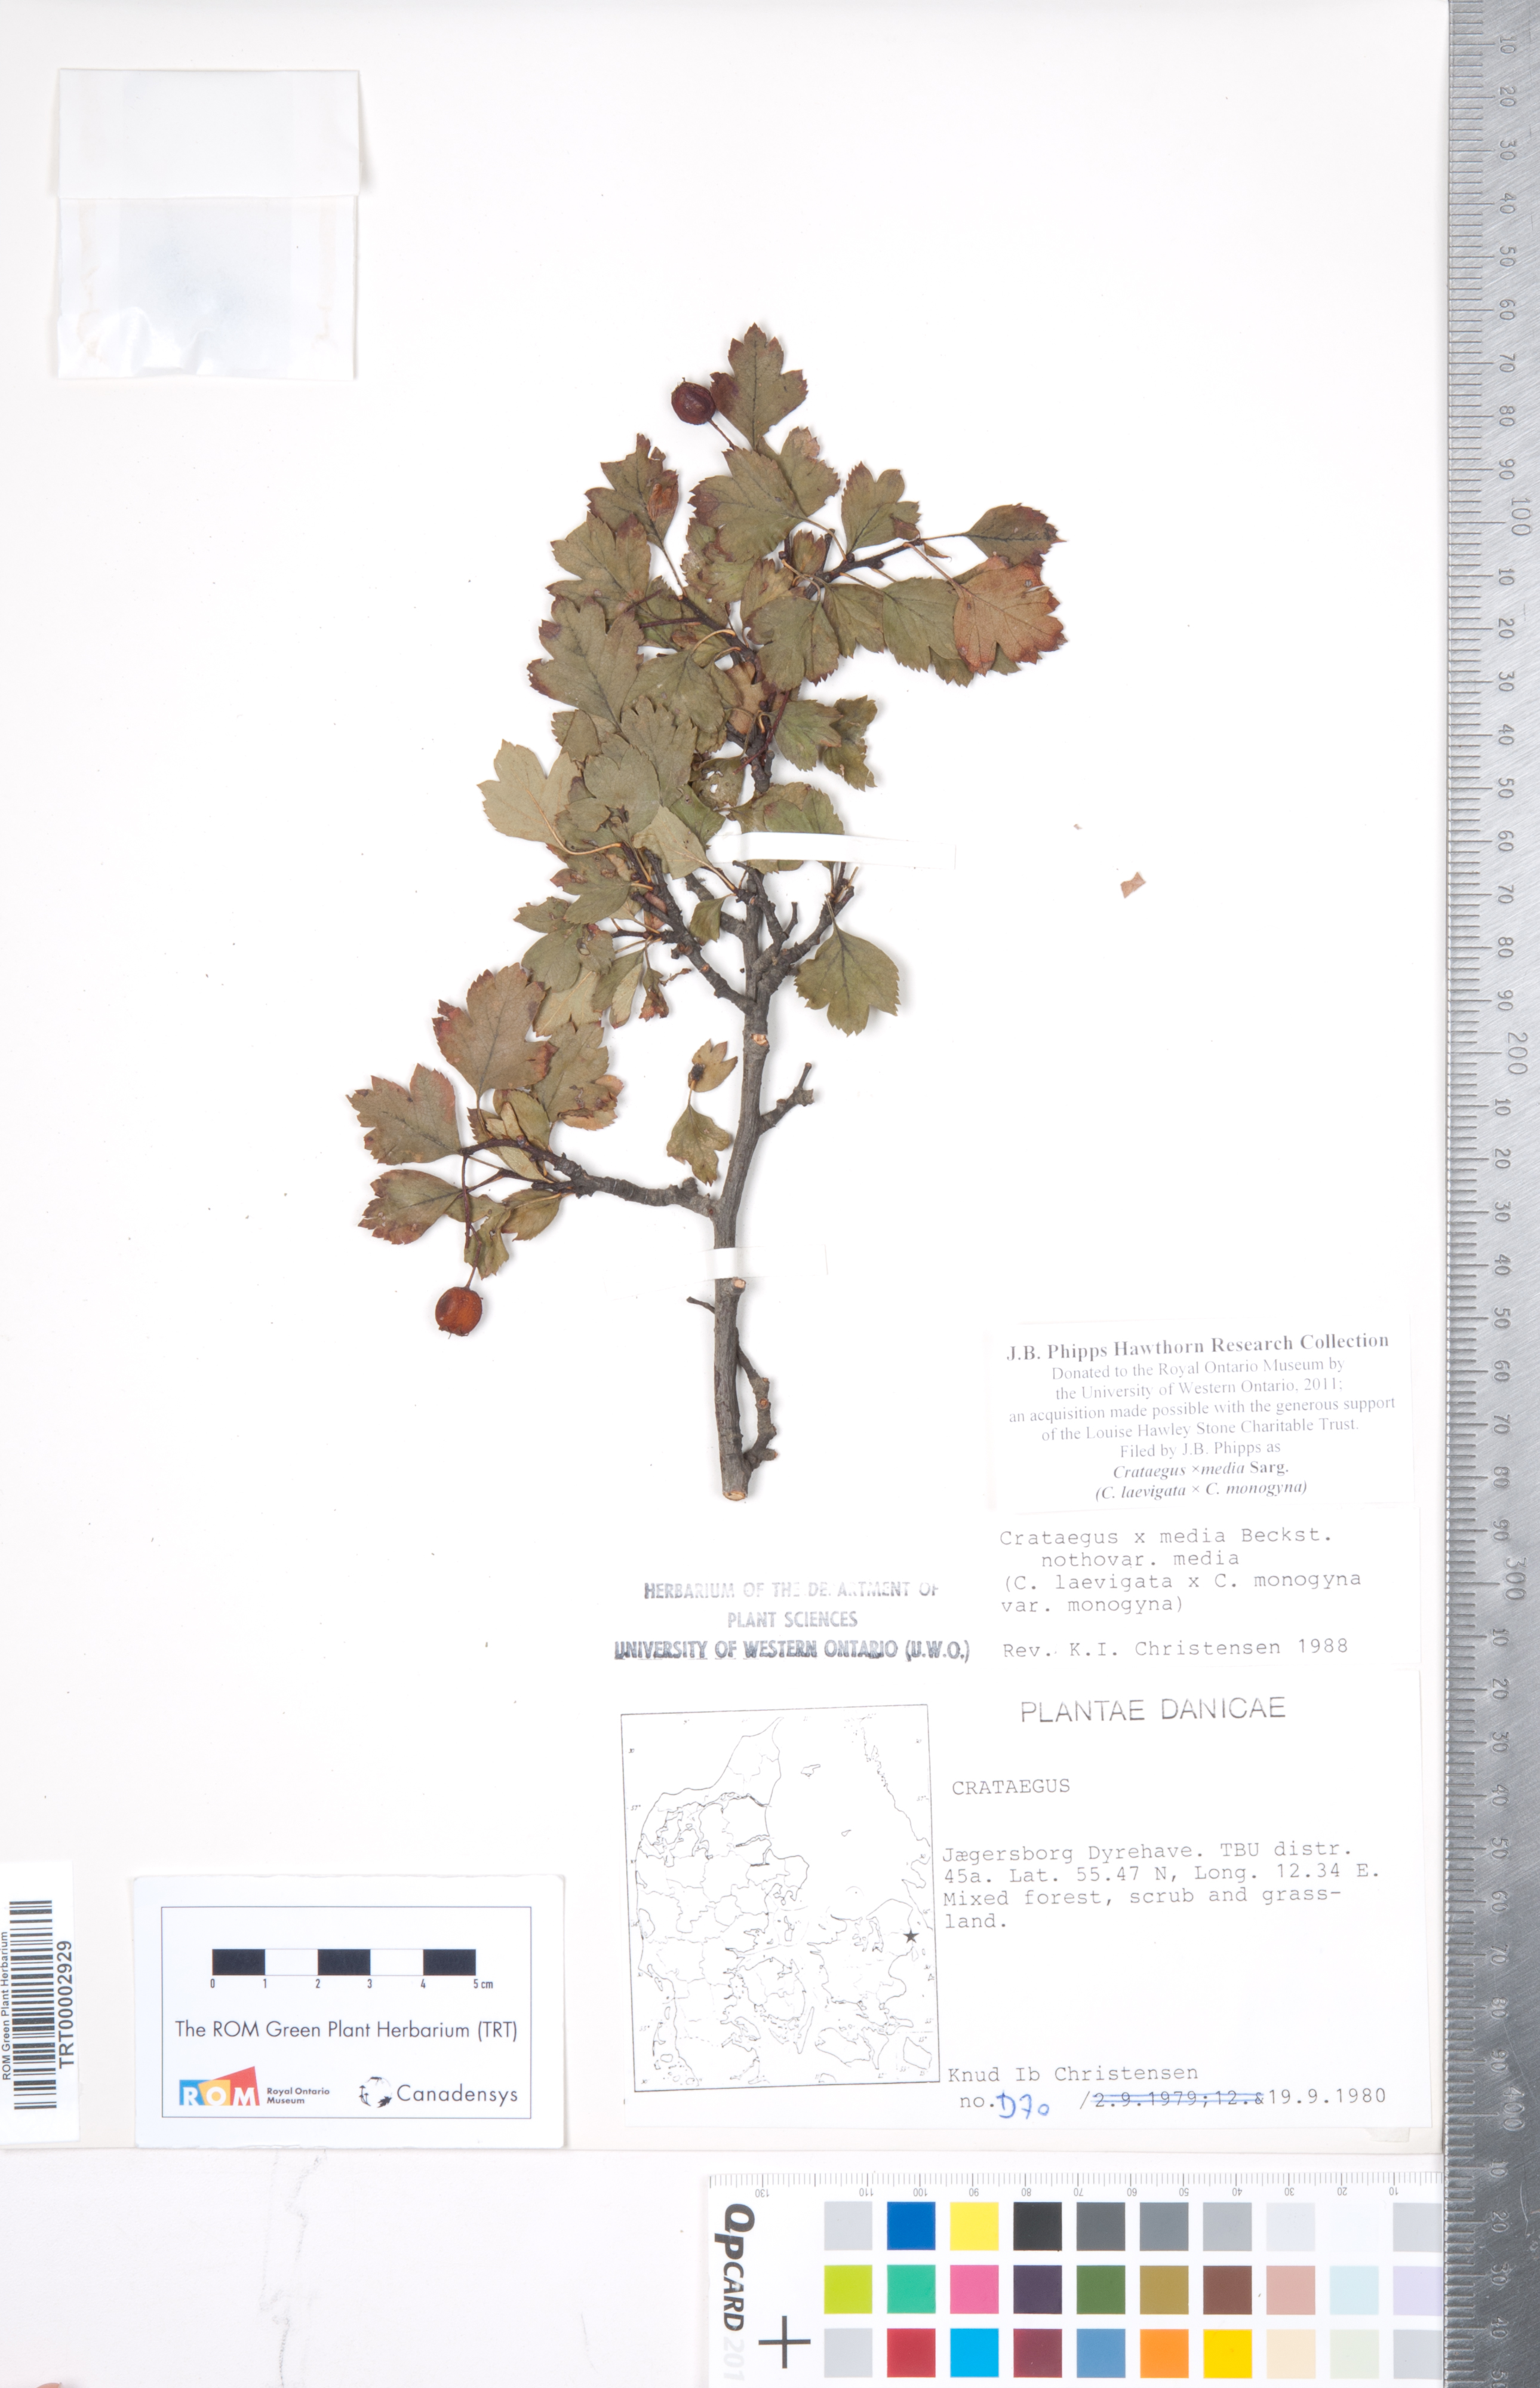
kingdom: Plantae
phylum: Tracheophyta
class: Magnoliopsida
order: Rosales
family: Rosaceae
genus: Crataegus
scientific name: Crataegus media
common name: Intermediate hawthorn
